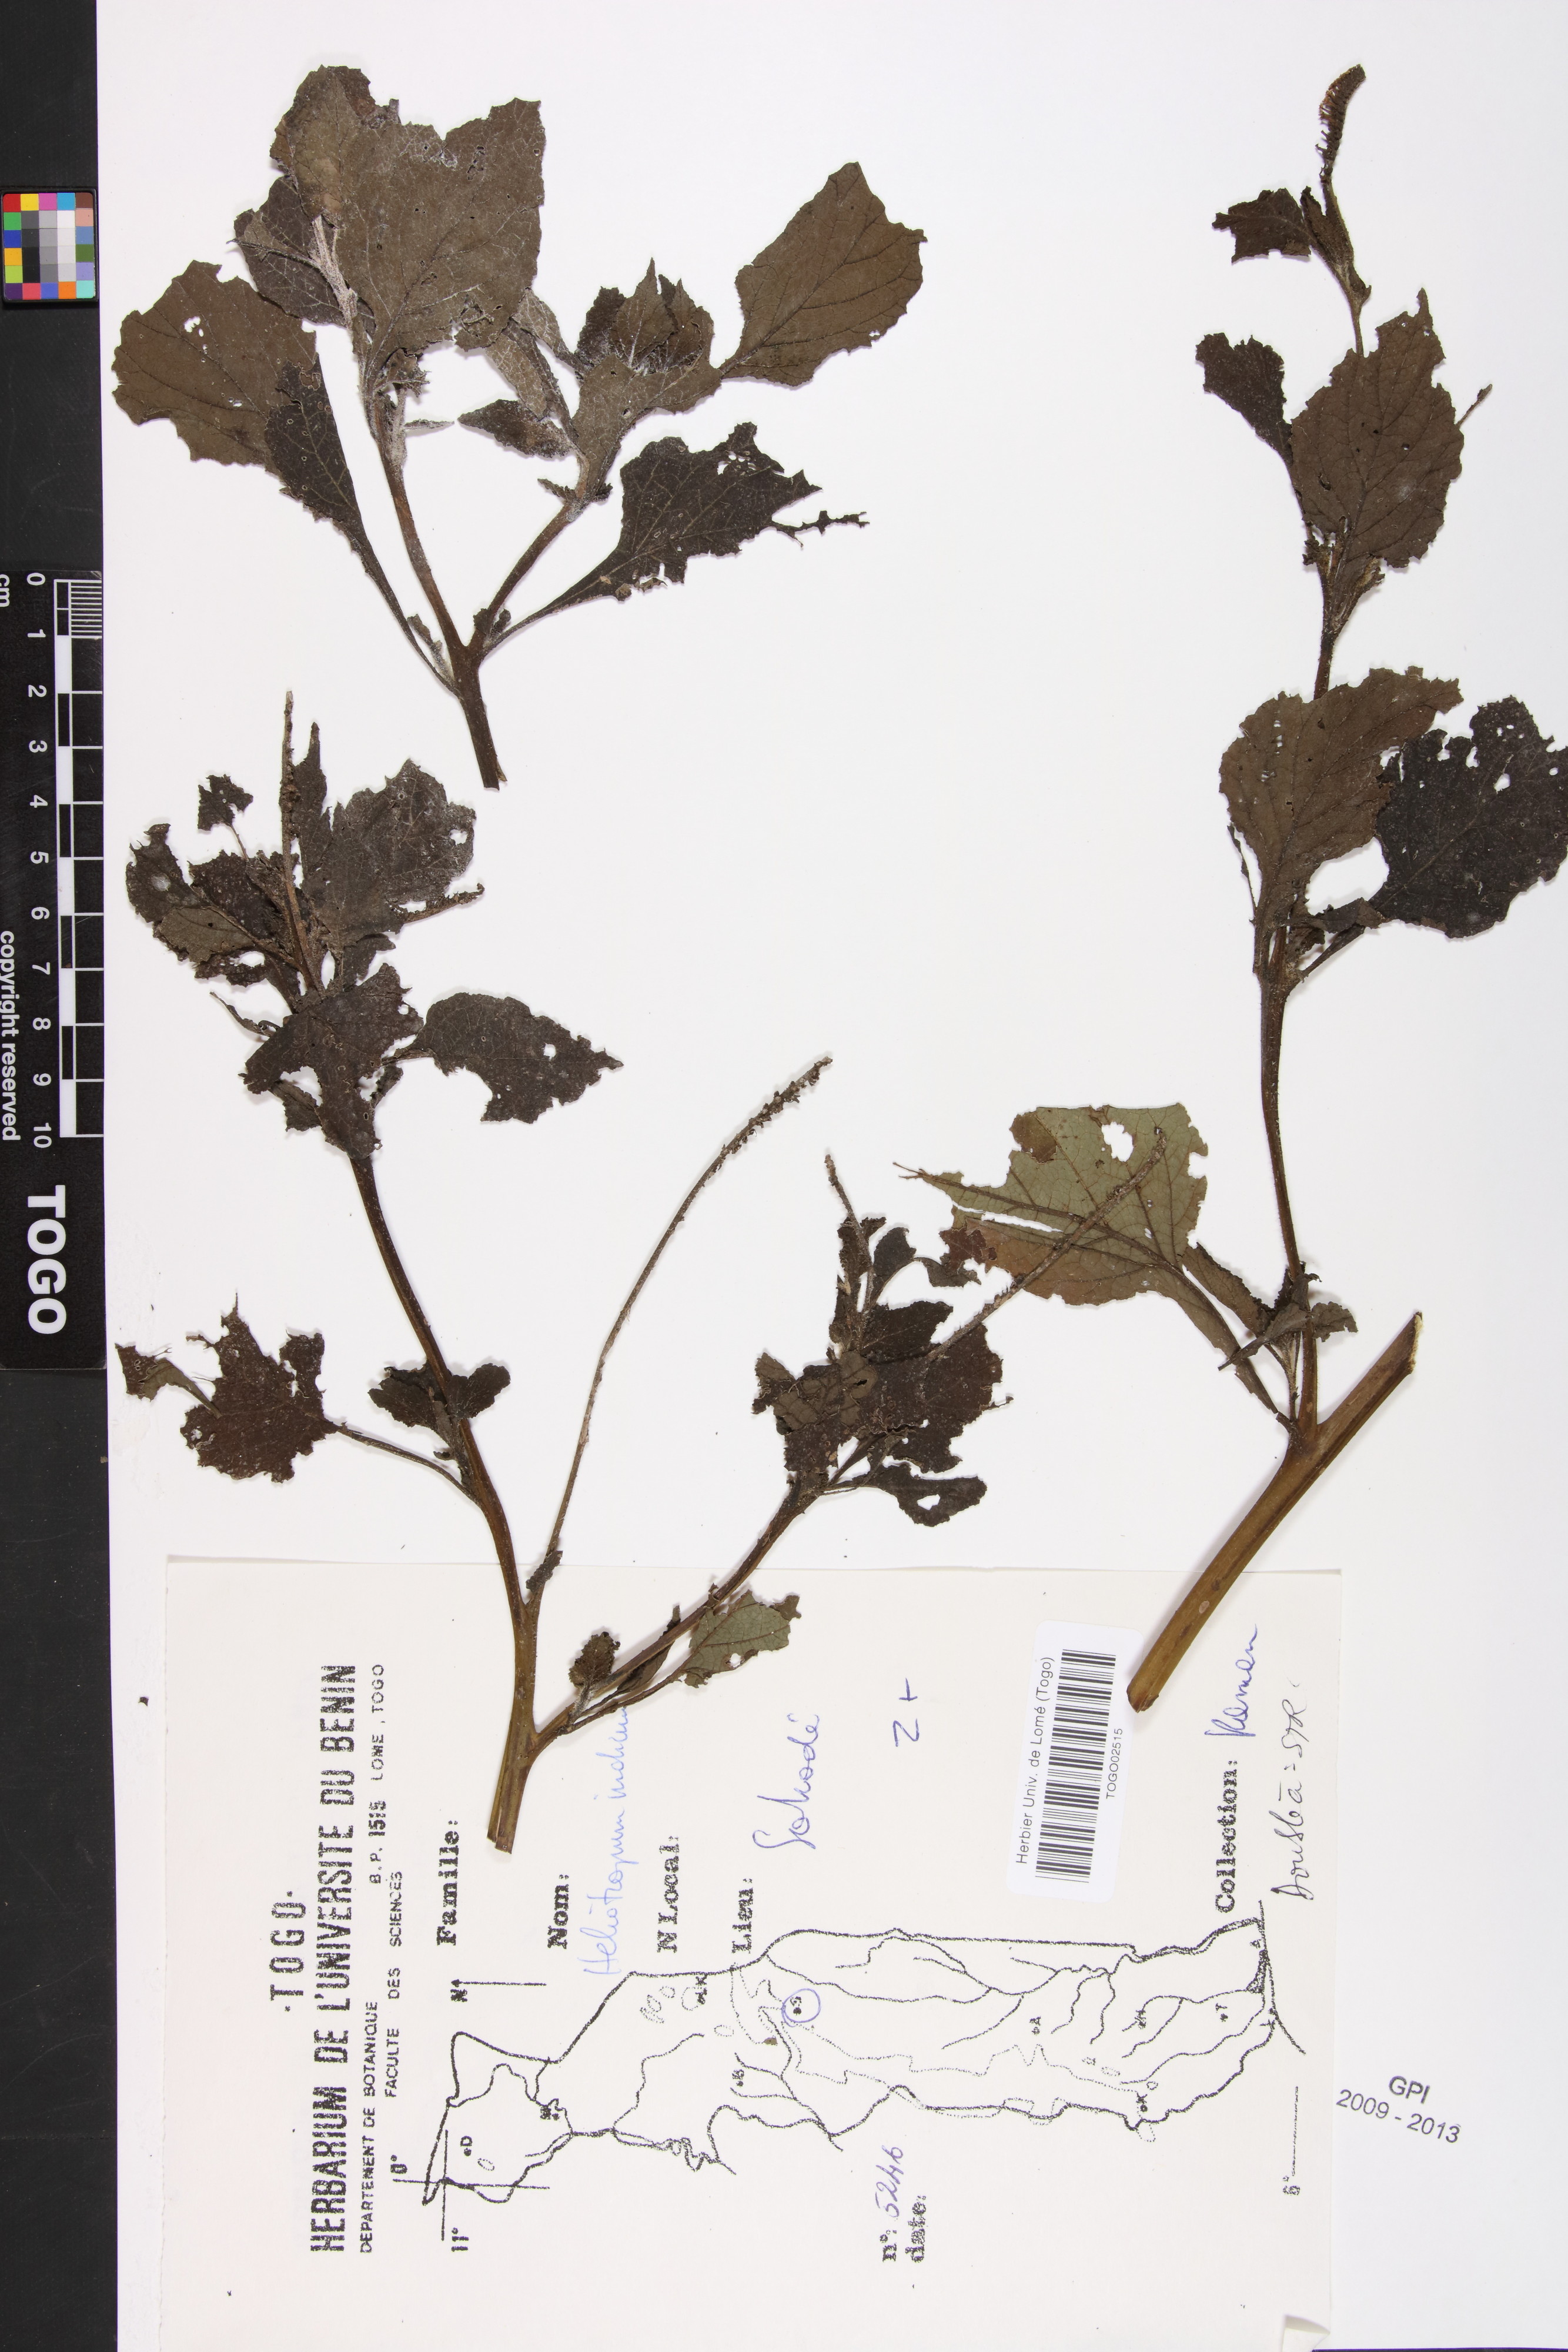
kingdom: Plantae
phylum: Tracheophyta
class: Magnoliopsida
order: Boraginales
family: Heliotropiaceae
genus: Heliotropium
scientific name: Heliotropium indicum
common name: Indian heliotrope
